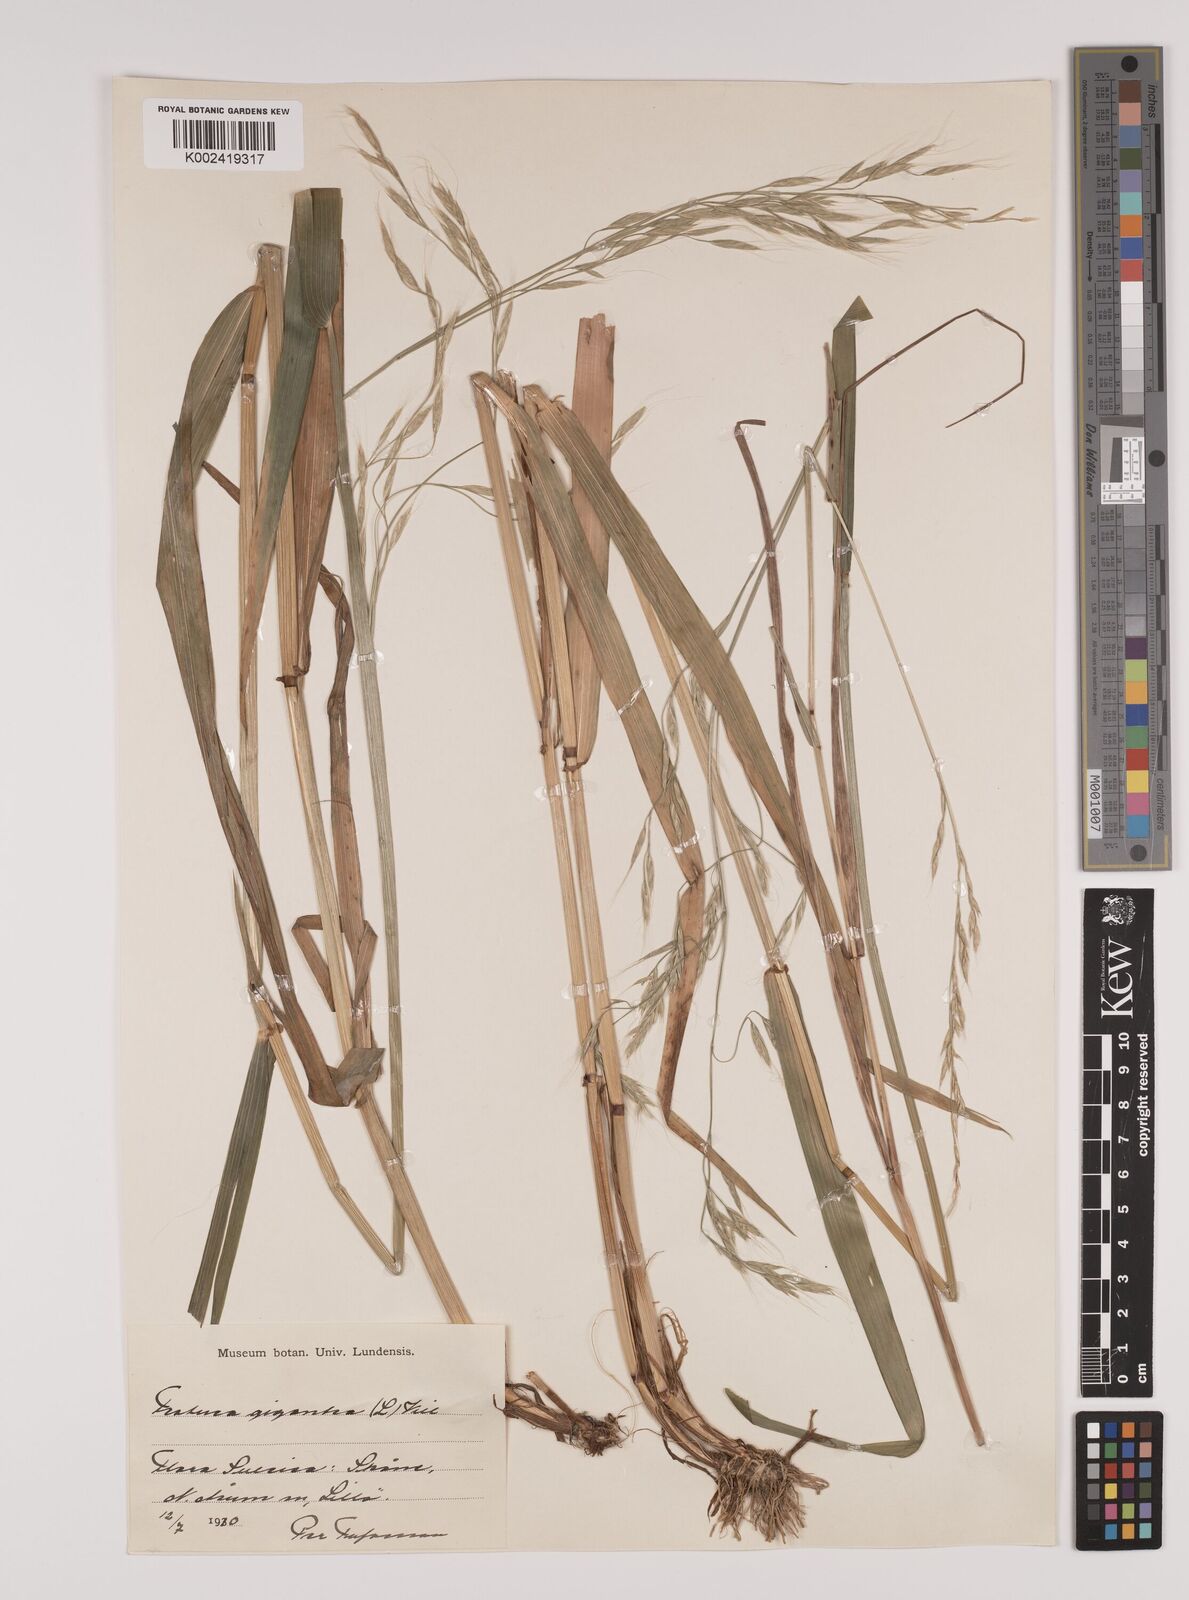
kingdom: Plantae
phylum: Tracheophyta
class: Liliopsida
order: Poales
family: Poaceae
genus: Lolium
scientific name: Lolium giganteum
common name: Giant fescue
